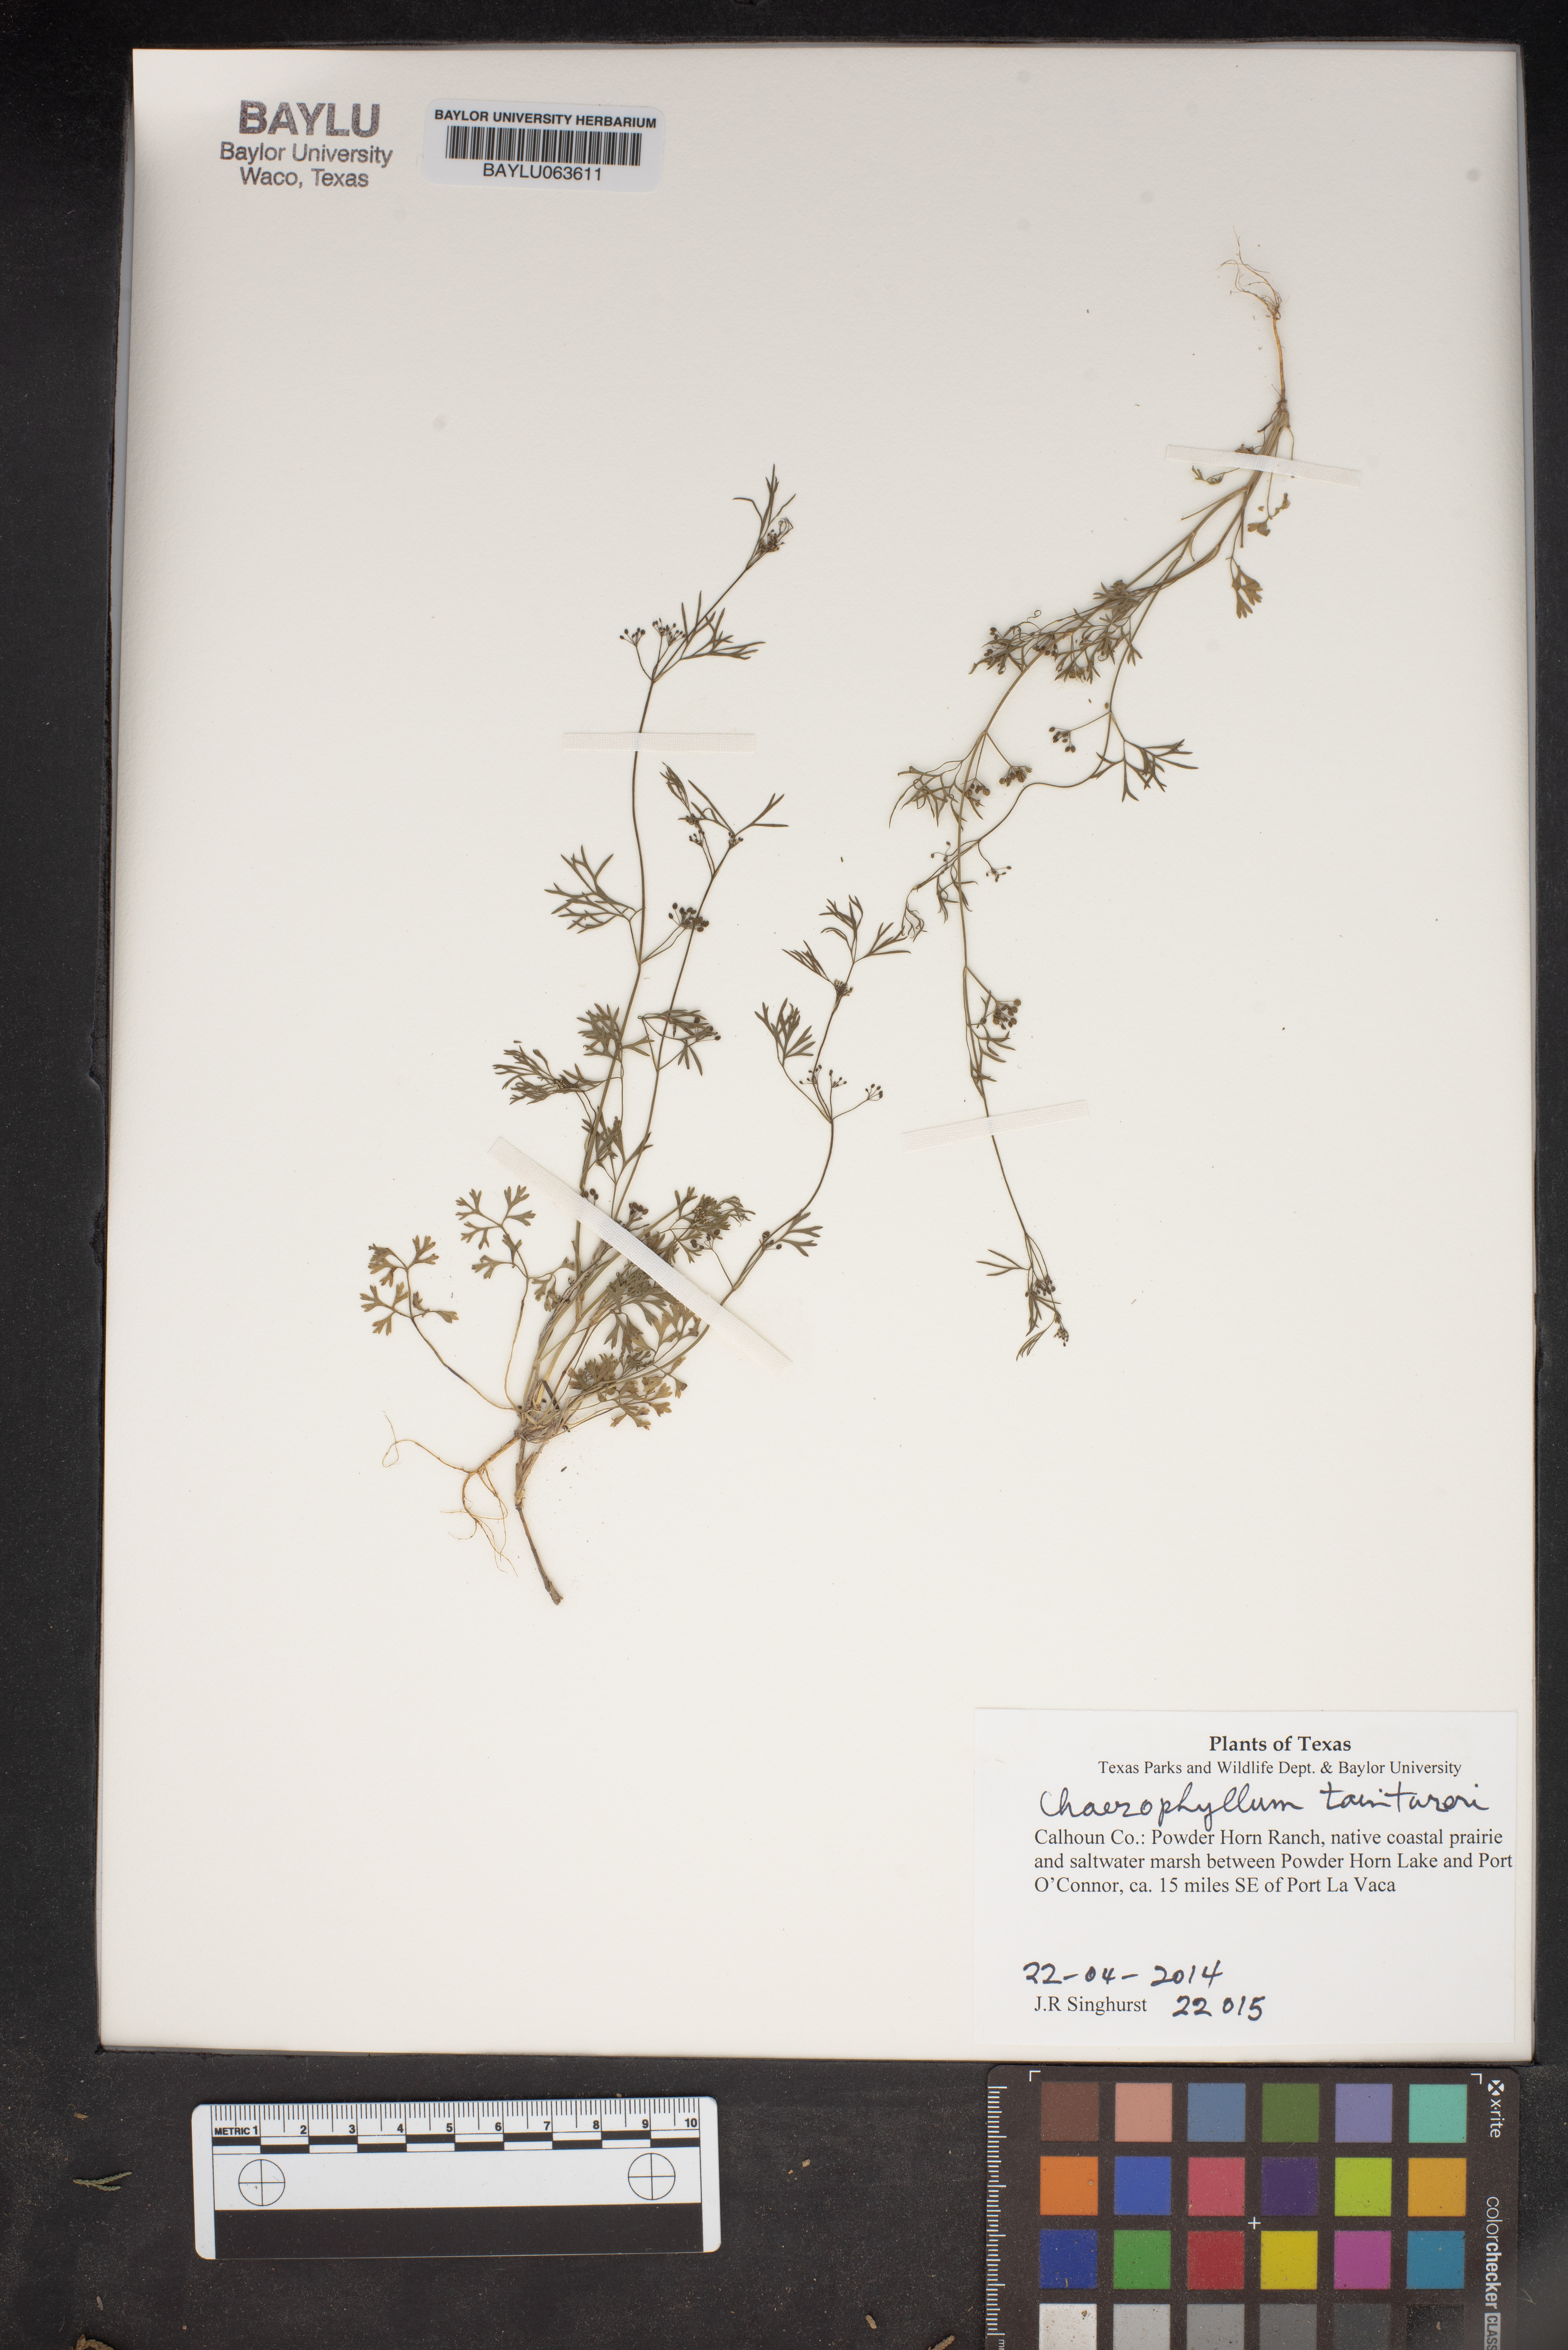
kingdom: Plantae
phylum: Tracheophyta
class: Magnoliopsida
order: Apiales
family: Apiaceae
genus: Chaerophyllum
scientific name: Chaerophyllum tainturieri
